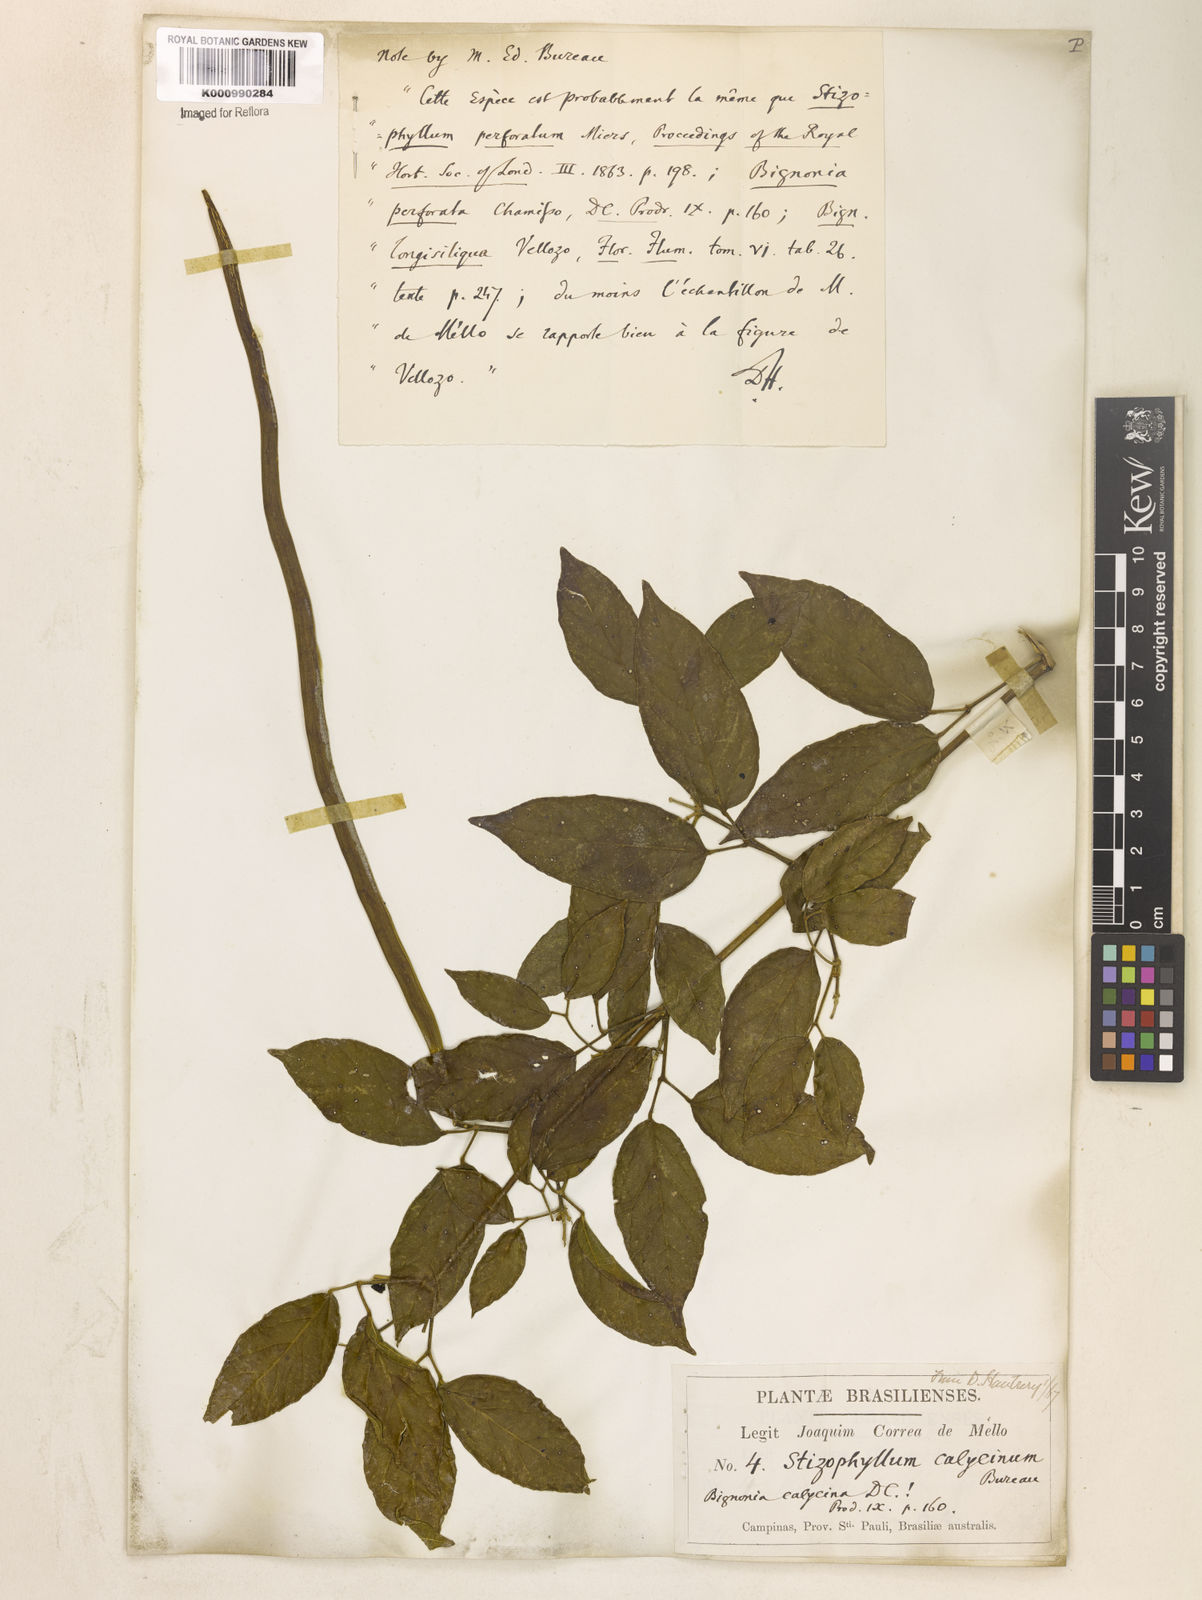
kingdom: Plantae
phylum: Tracheophyta
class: Magnoliopsida
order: Lamiales
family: Bignoniaceae
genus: Stizophyllum
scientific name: Stizophyllum perforatum
